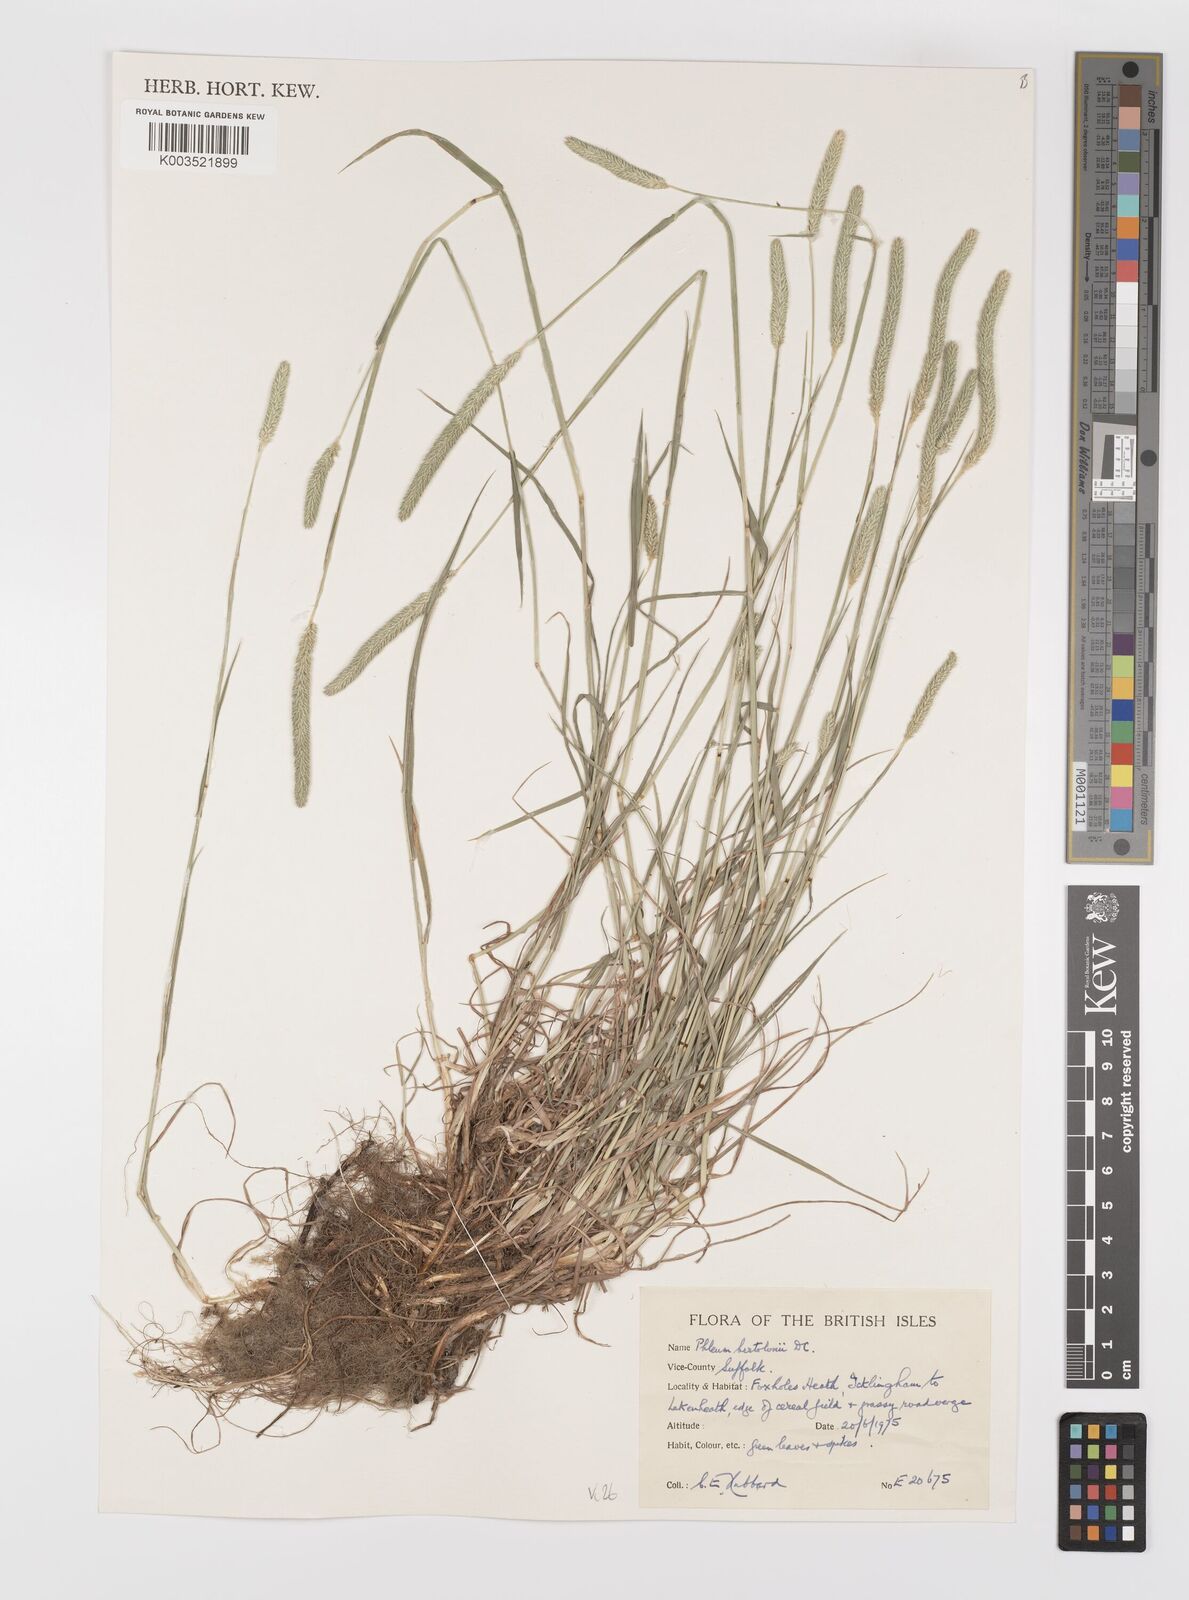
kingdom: Plantae
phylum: Tracheophyta
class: Liliopsida
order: Poales
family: Poaceae
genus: Phleum
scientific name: Phleum bertolonii
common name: Smaller cat's-tail
